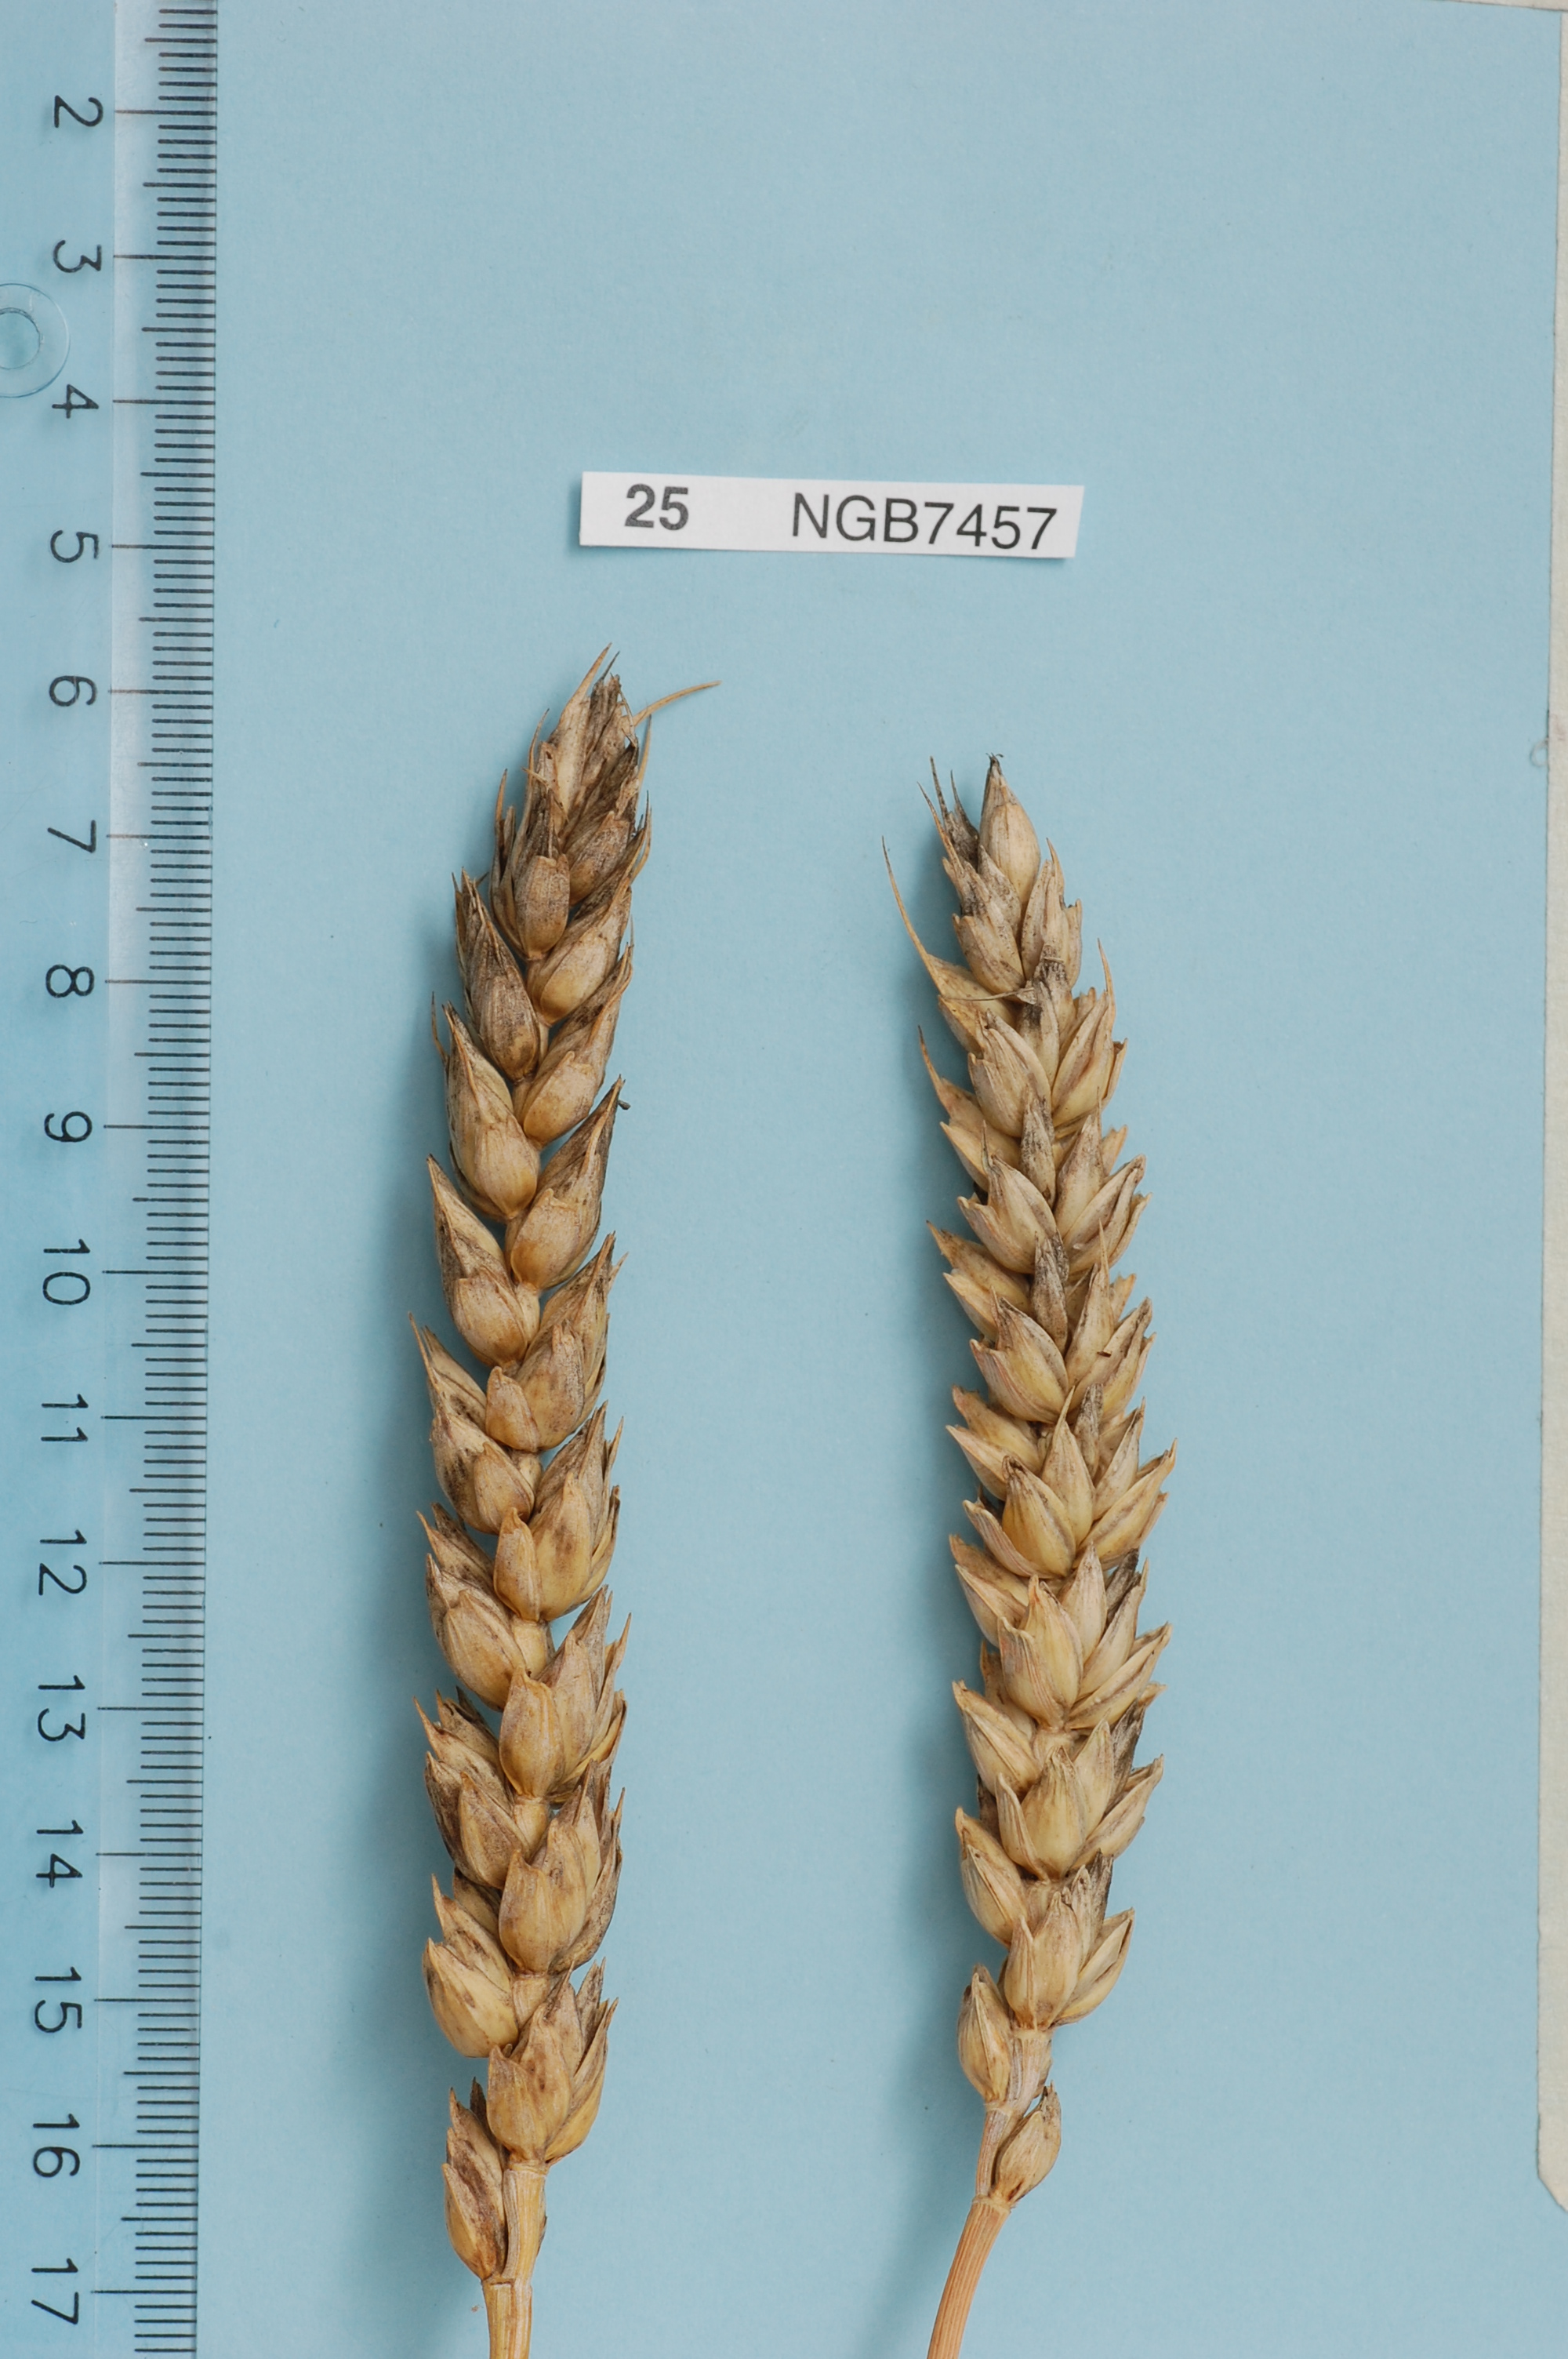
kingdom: Plantae
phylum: Tracheophyta
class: Liliopsida
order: Poales
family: Poaceae
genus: Triticum
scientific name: Triticum aestivum
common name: Common wheat
